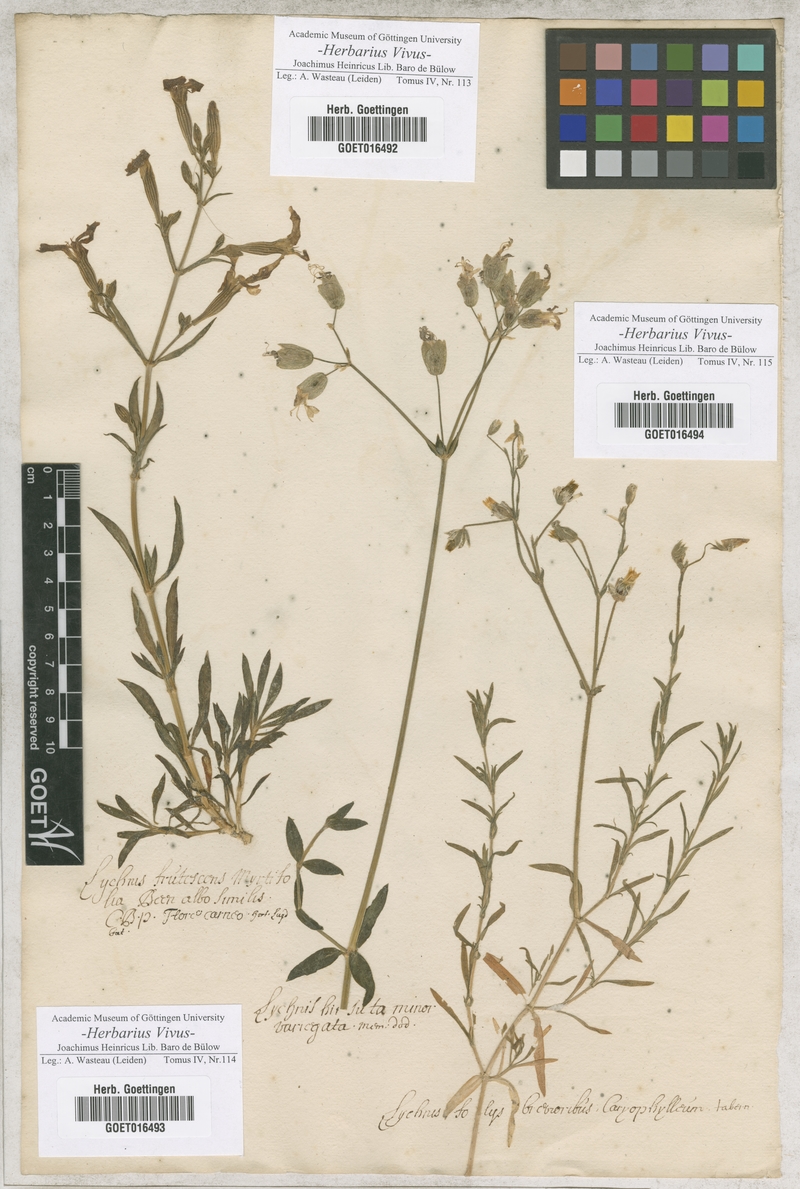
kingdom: Plantae
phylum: Tracheophyta
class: Magnoliopsida
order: Caryophyllales
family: Caryophyllaceae
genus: Silene
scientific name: Silene
